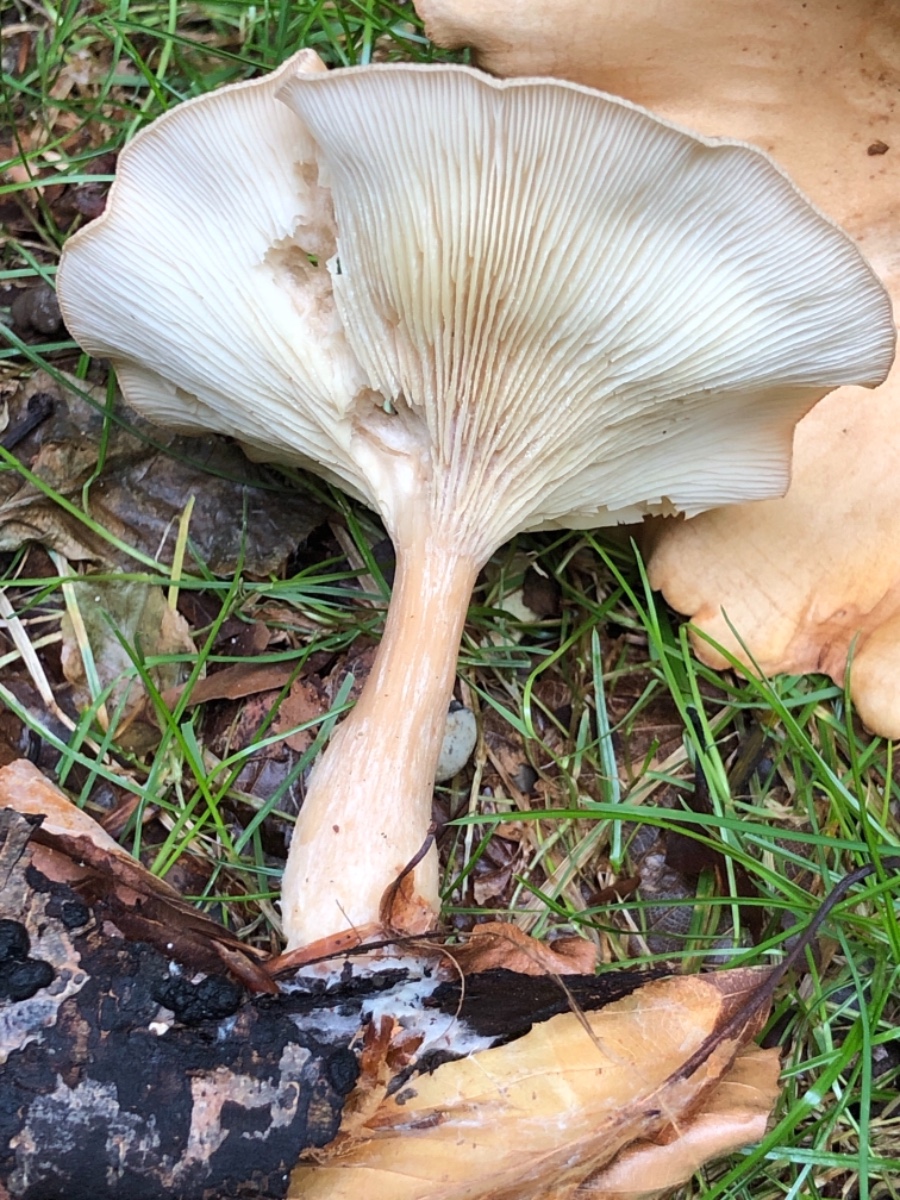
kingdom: Fungi
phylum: Basidiomycota
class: Agaricomycetes
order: Agaricales
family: Tricholomataceae
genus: Infundibulicybe
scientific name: Infundibulicybe gibba
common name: almindelig tragthat
